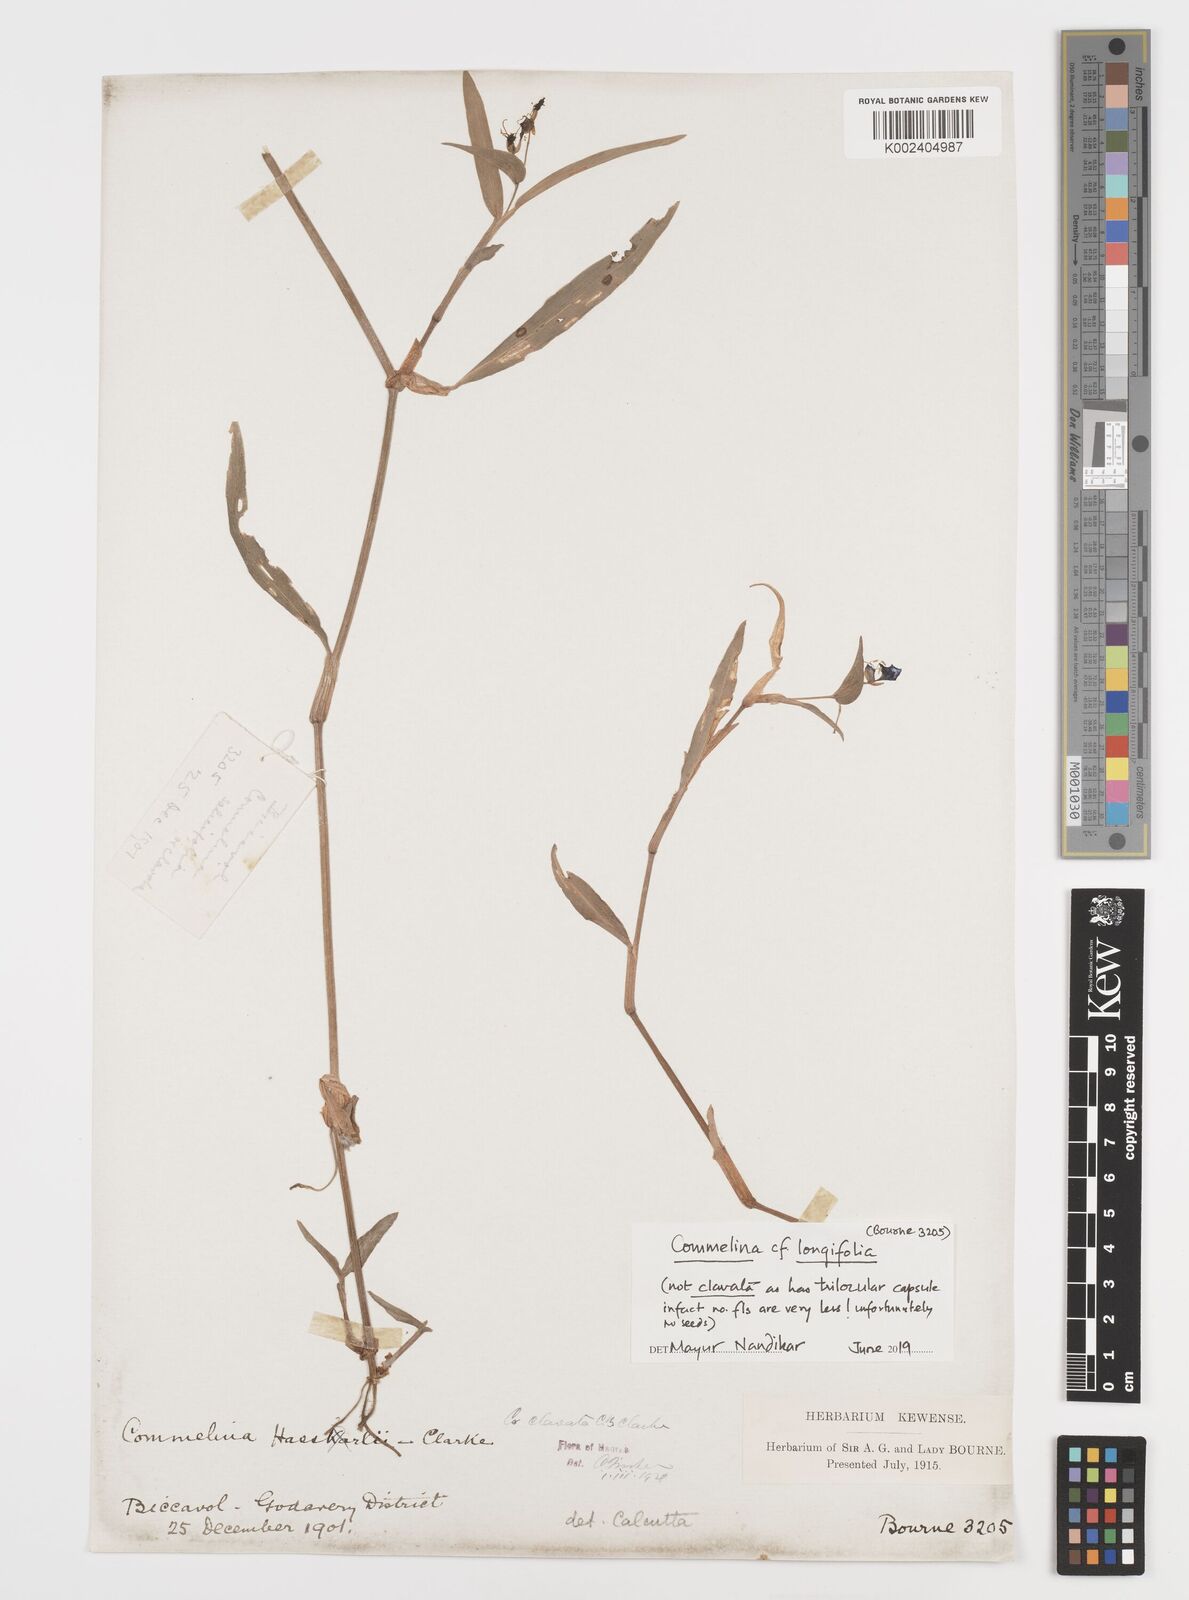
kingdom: Plantae
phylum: Tracheophyta
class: Liliopsida
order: Commelinales
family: Commelinaceae
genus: Commelina
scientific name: Commelina undulata
